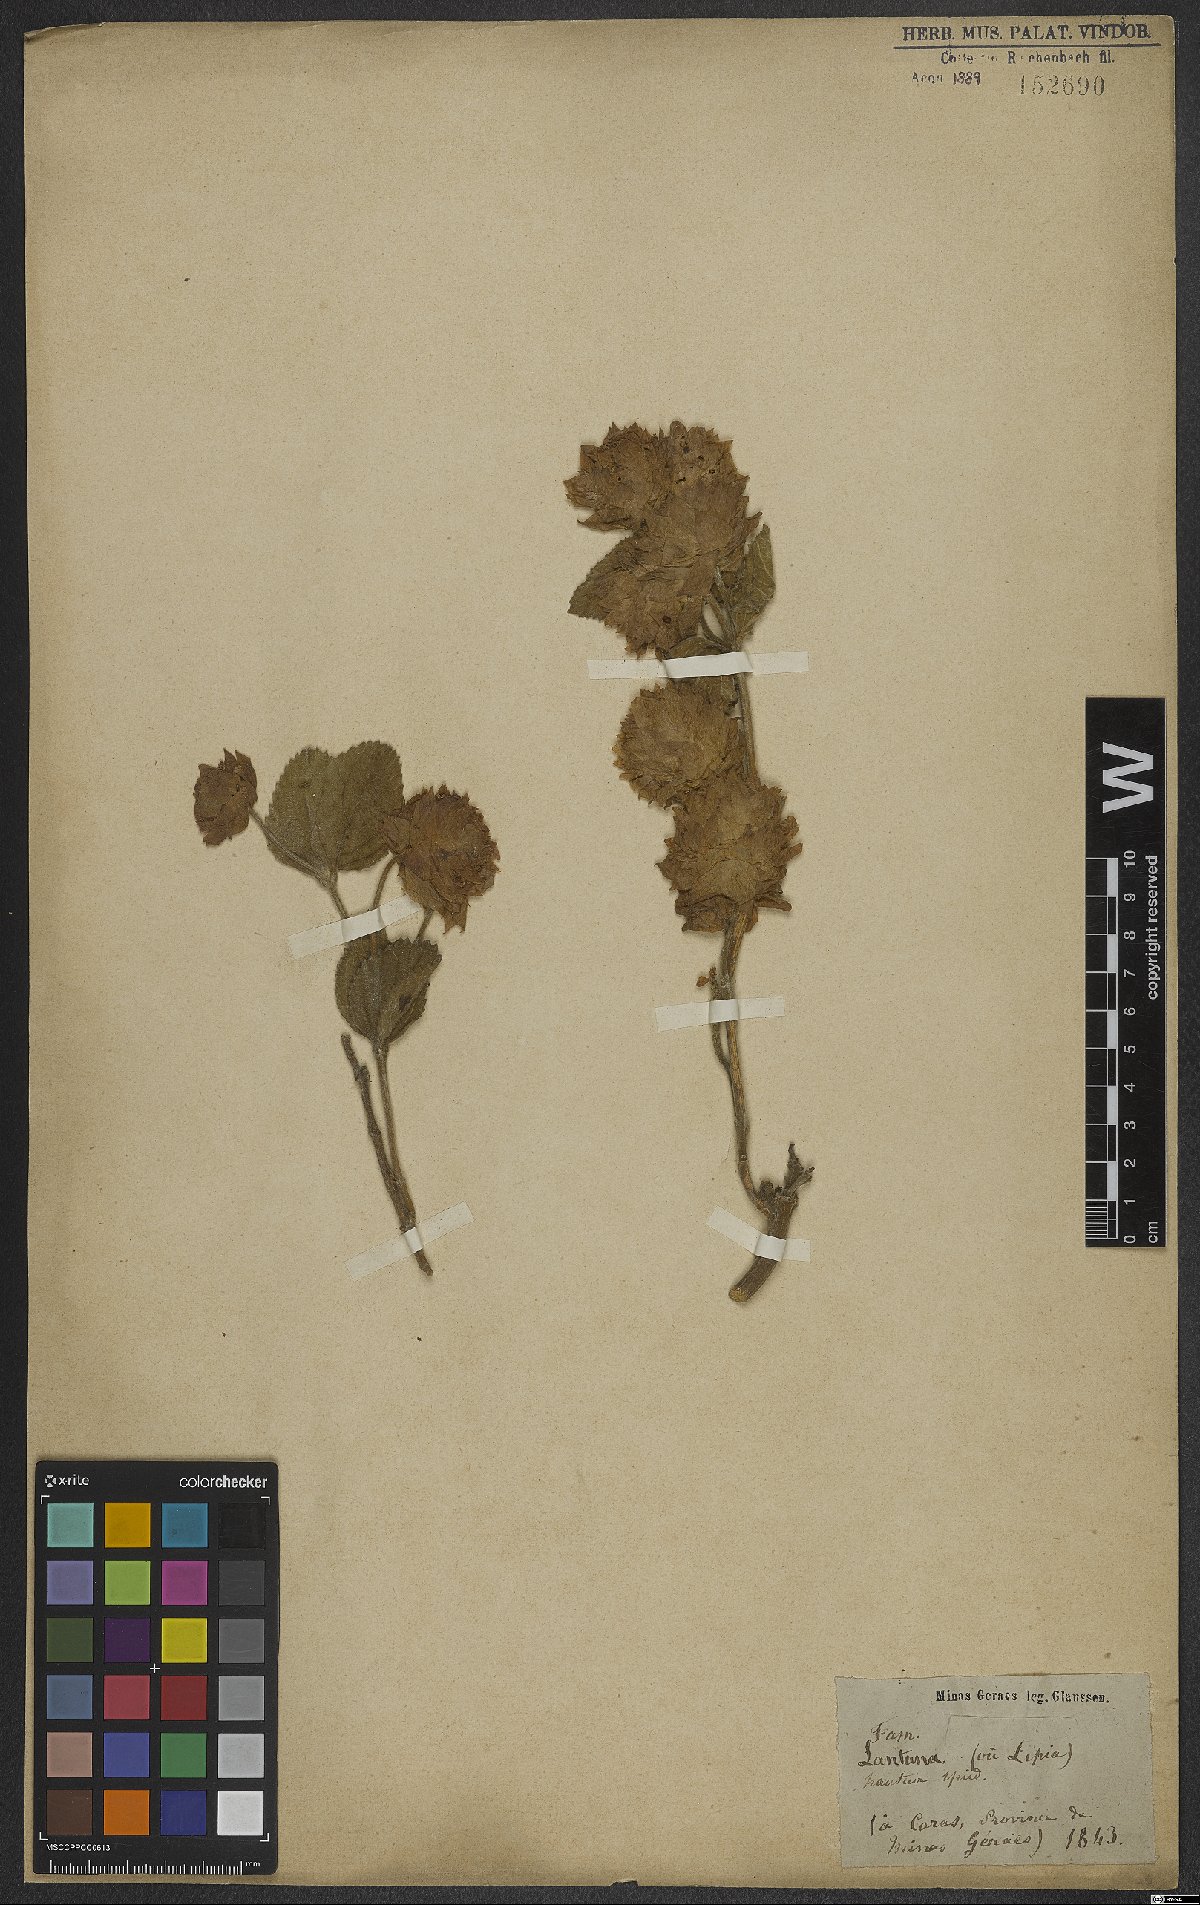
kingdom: Plantae
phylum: Tracheophyta
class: Magnoliopsida
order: Lamiales
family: Verbenaceae
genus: Lippia
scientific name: Lippia lupulina
